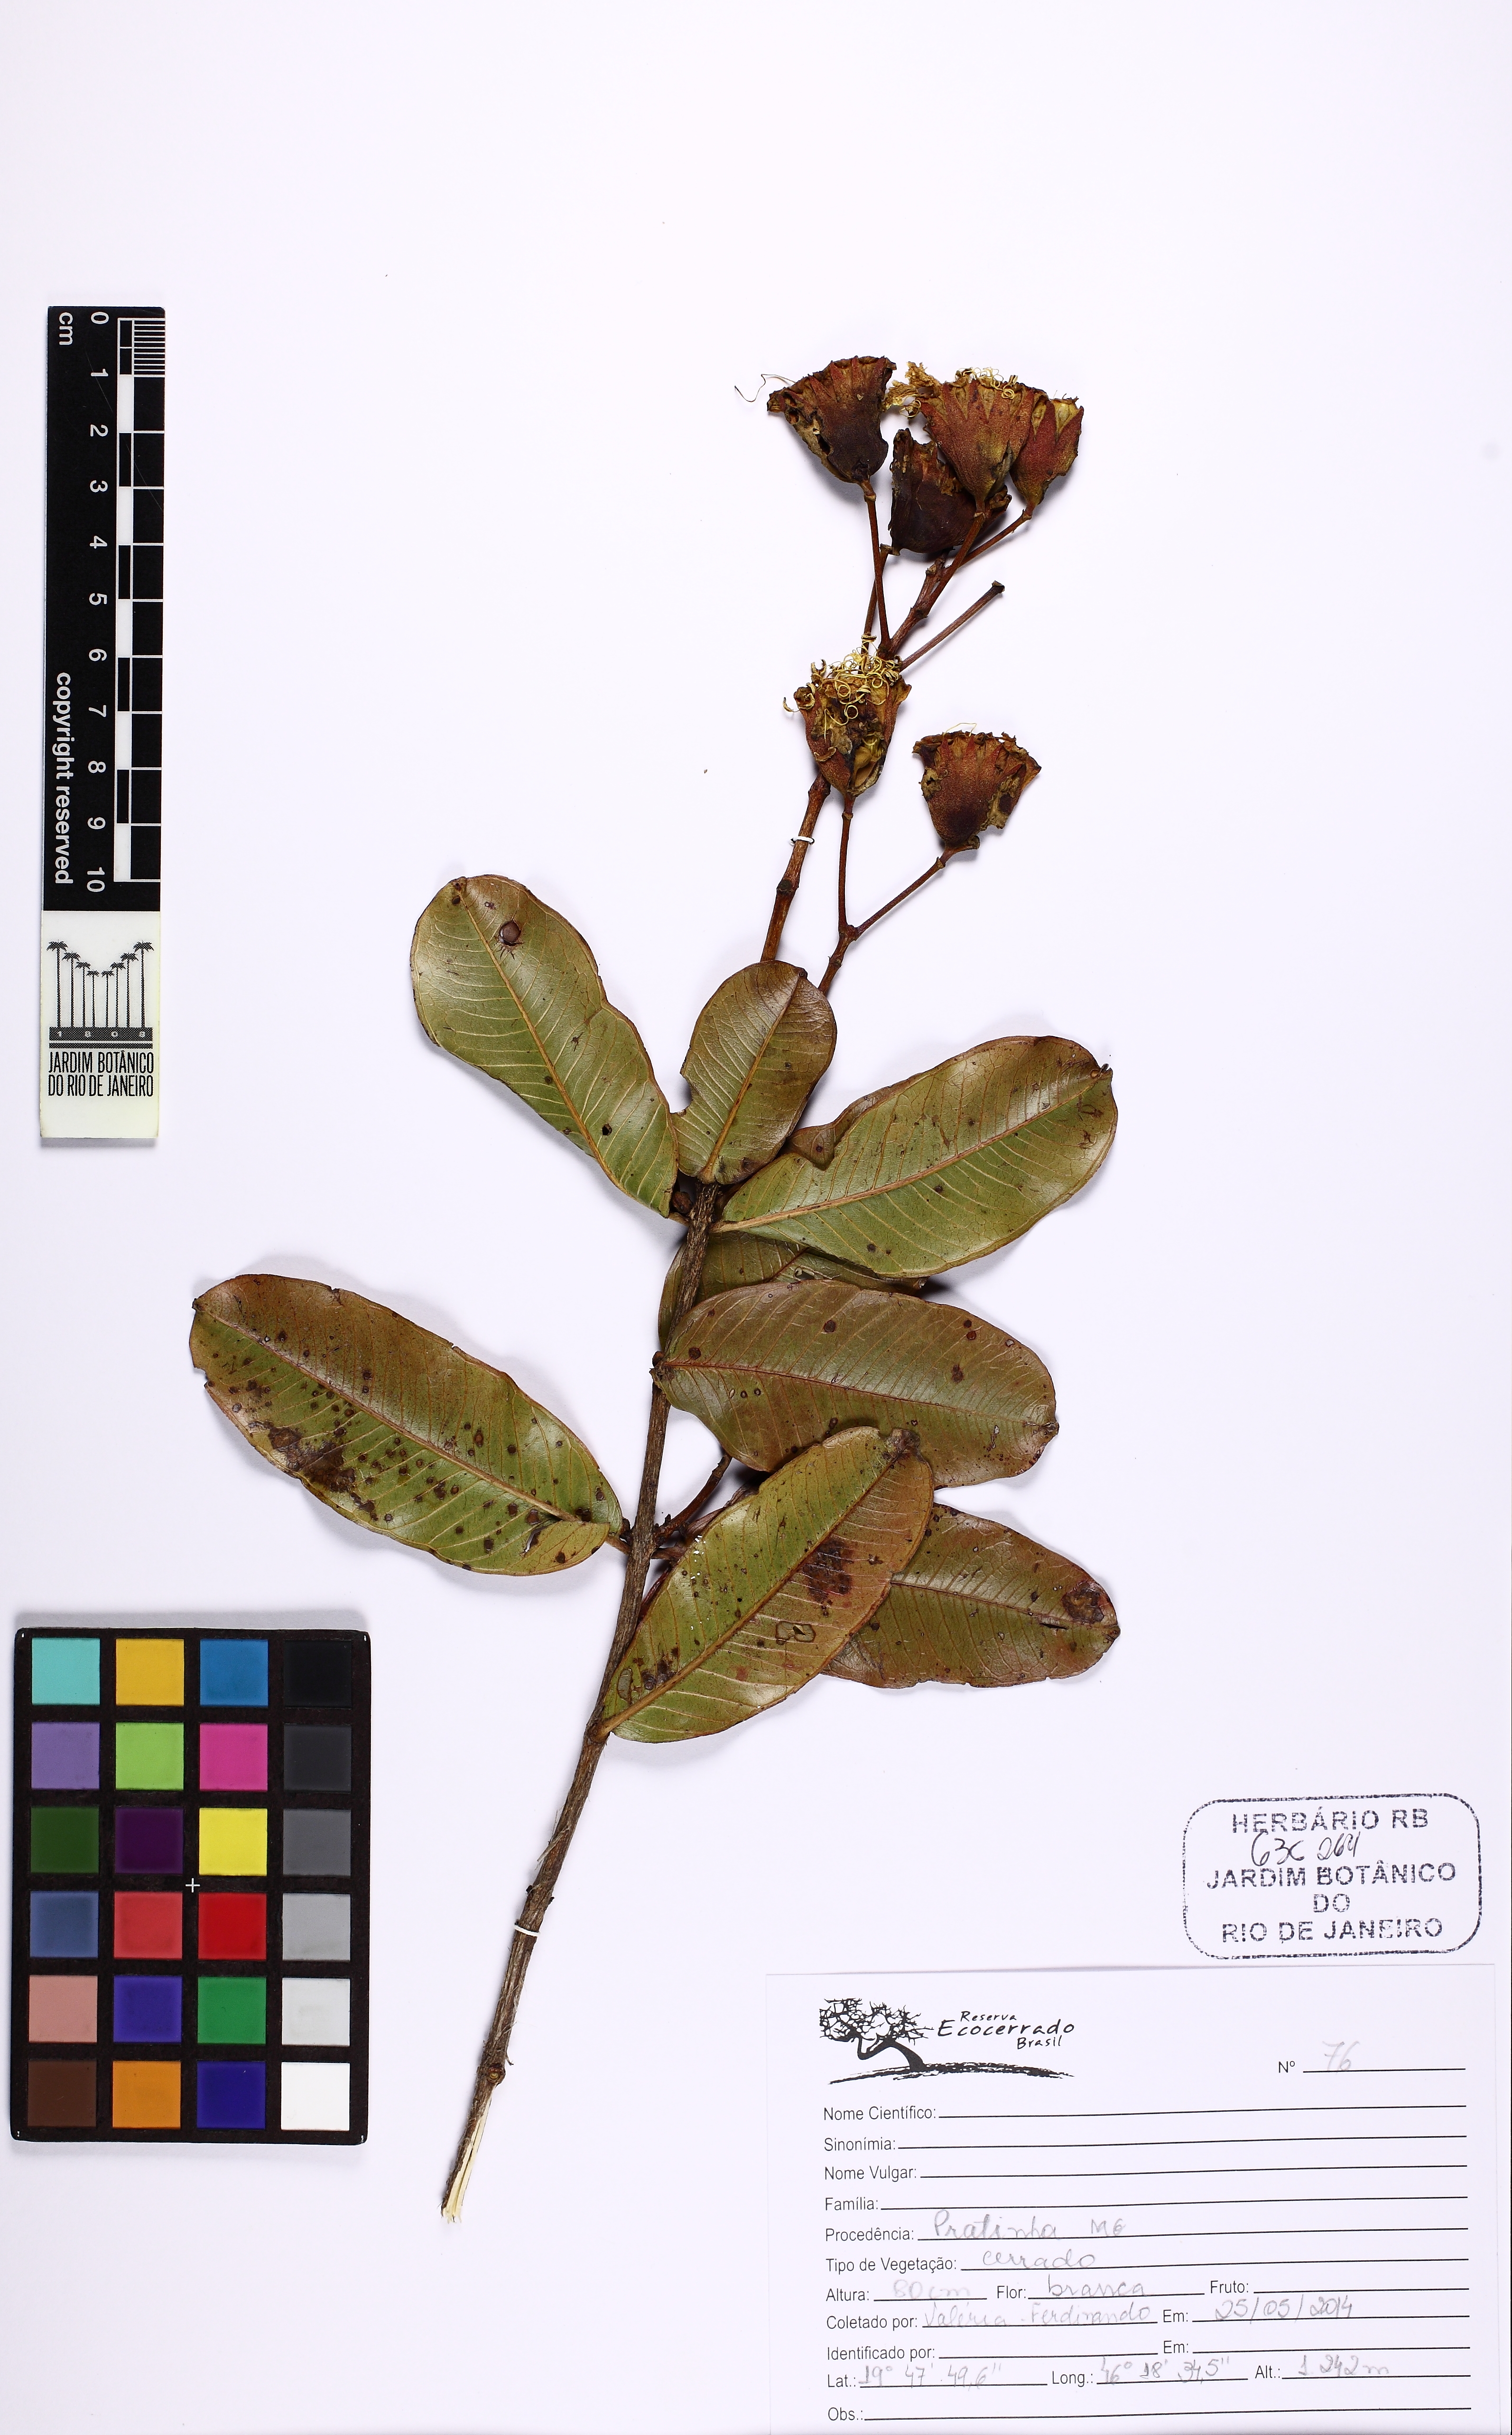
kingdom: Plantae
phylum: Tracheophyta
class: Magnoliopsida
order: Myrtales
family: Lythraceae
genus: Lafoensia
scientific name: Lafoensia
